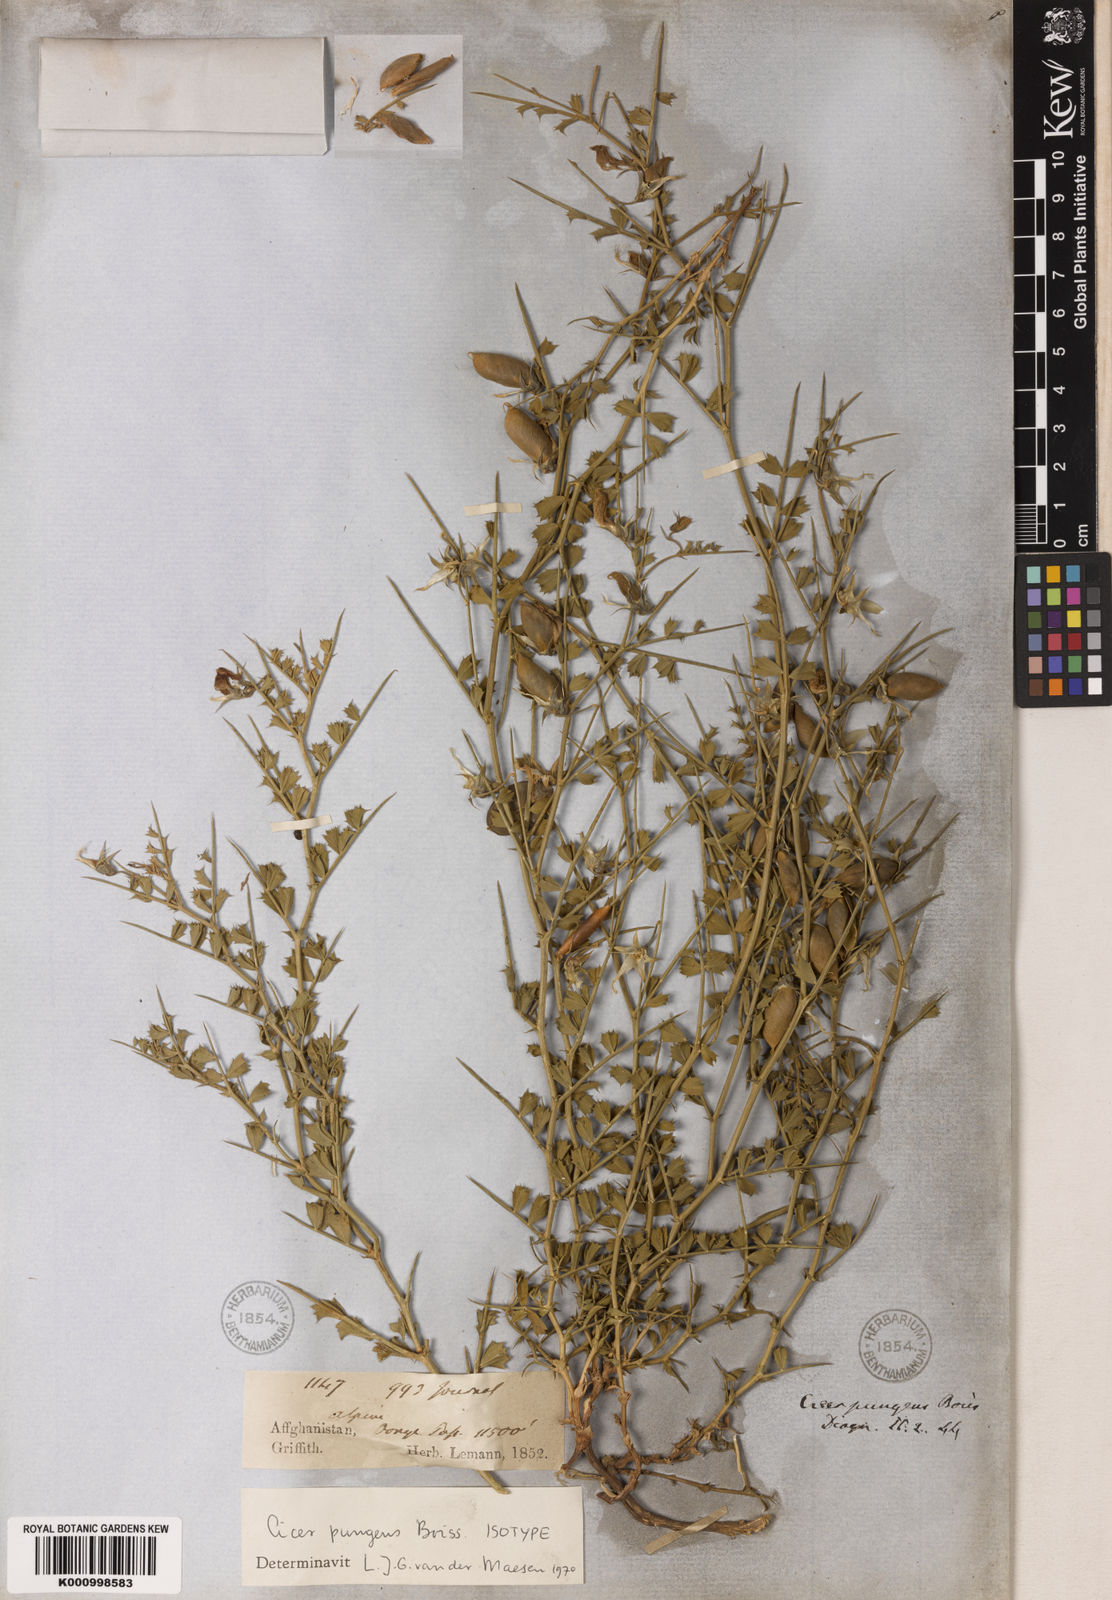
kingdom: Plantae
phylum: Tracheophyta
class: Magnoliopsida
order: Fabales
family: Fabaceae
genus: Cicer
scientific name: Cicer pungens
